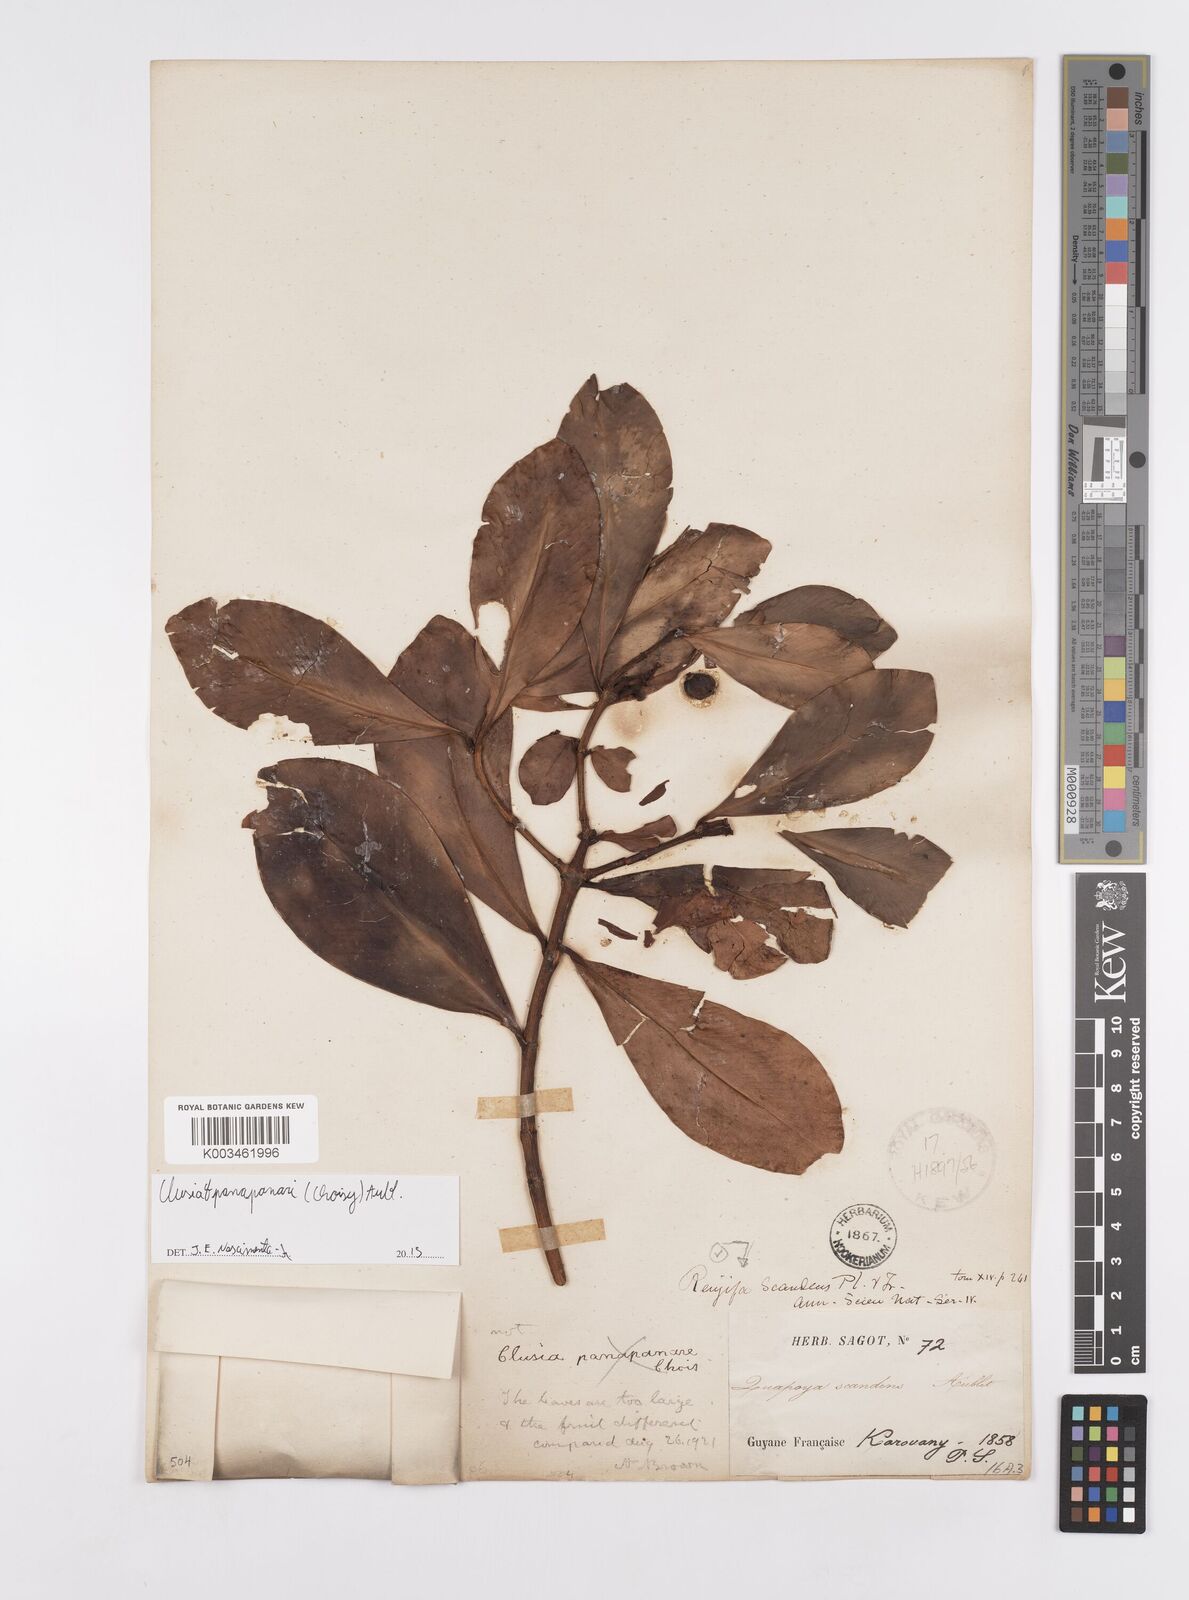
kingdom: Plantae
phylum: Tracheophyta
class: Magnoliopsida
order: Malpighiales
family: Clusiaceae
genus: Clusia
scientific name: Clusia panapanari
